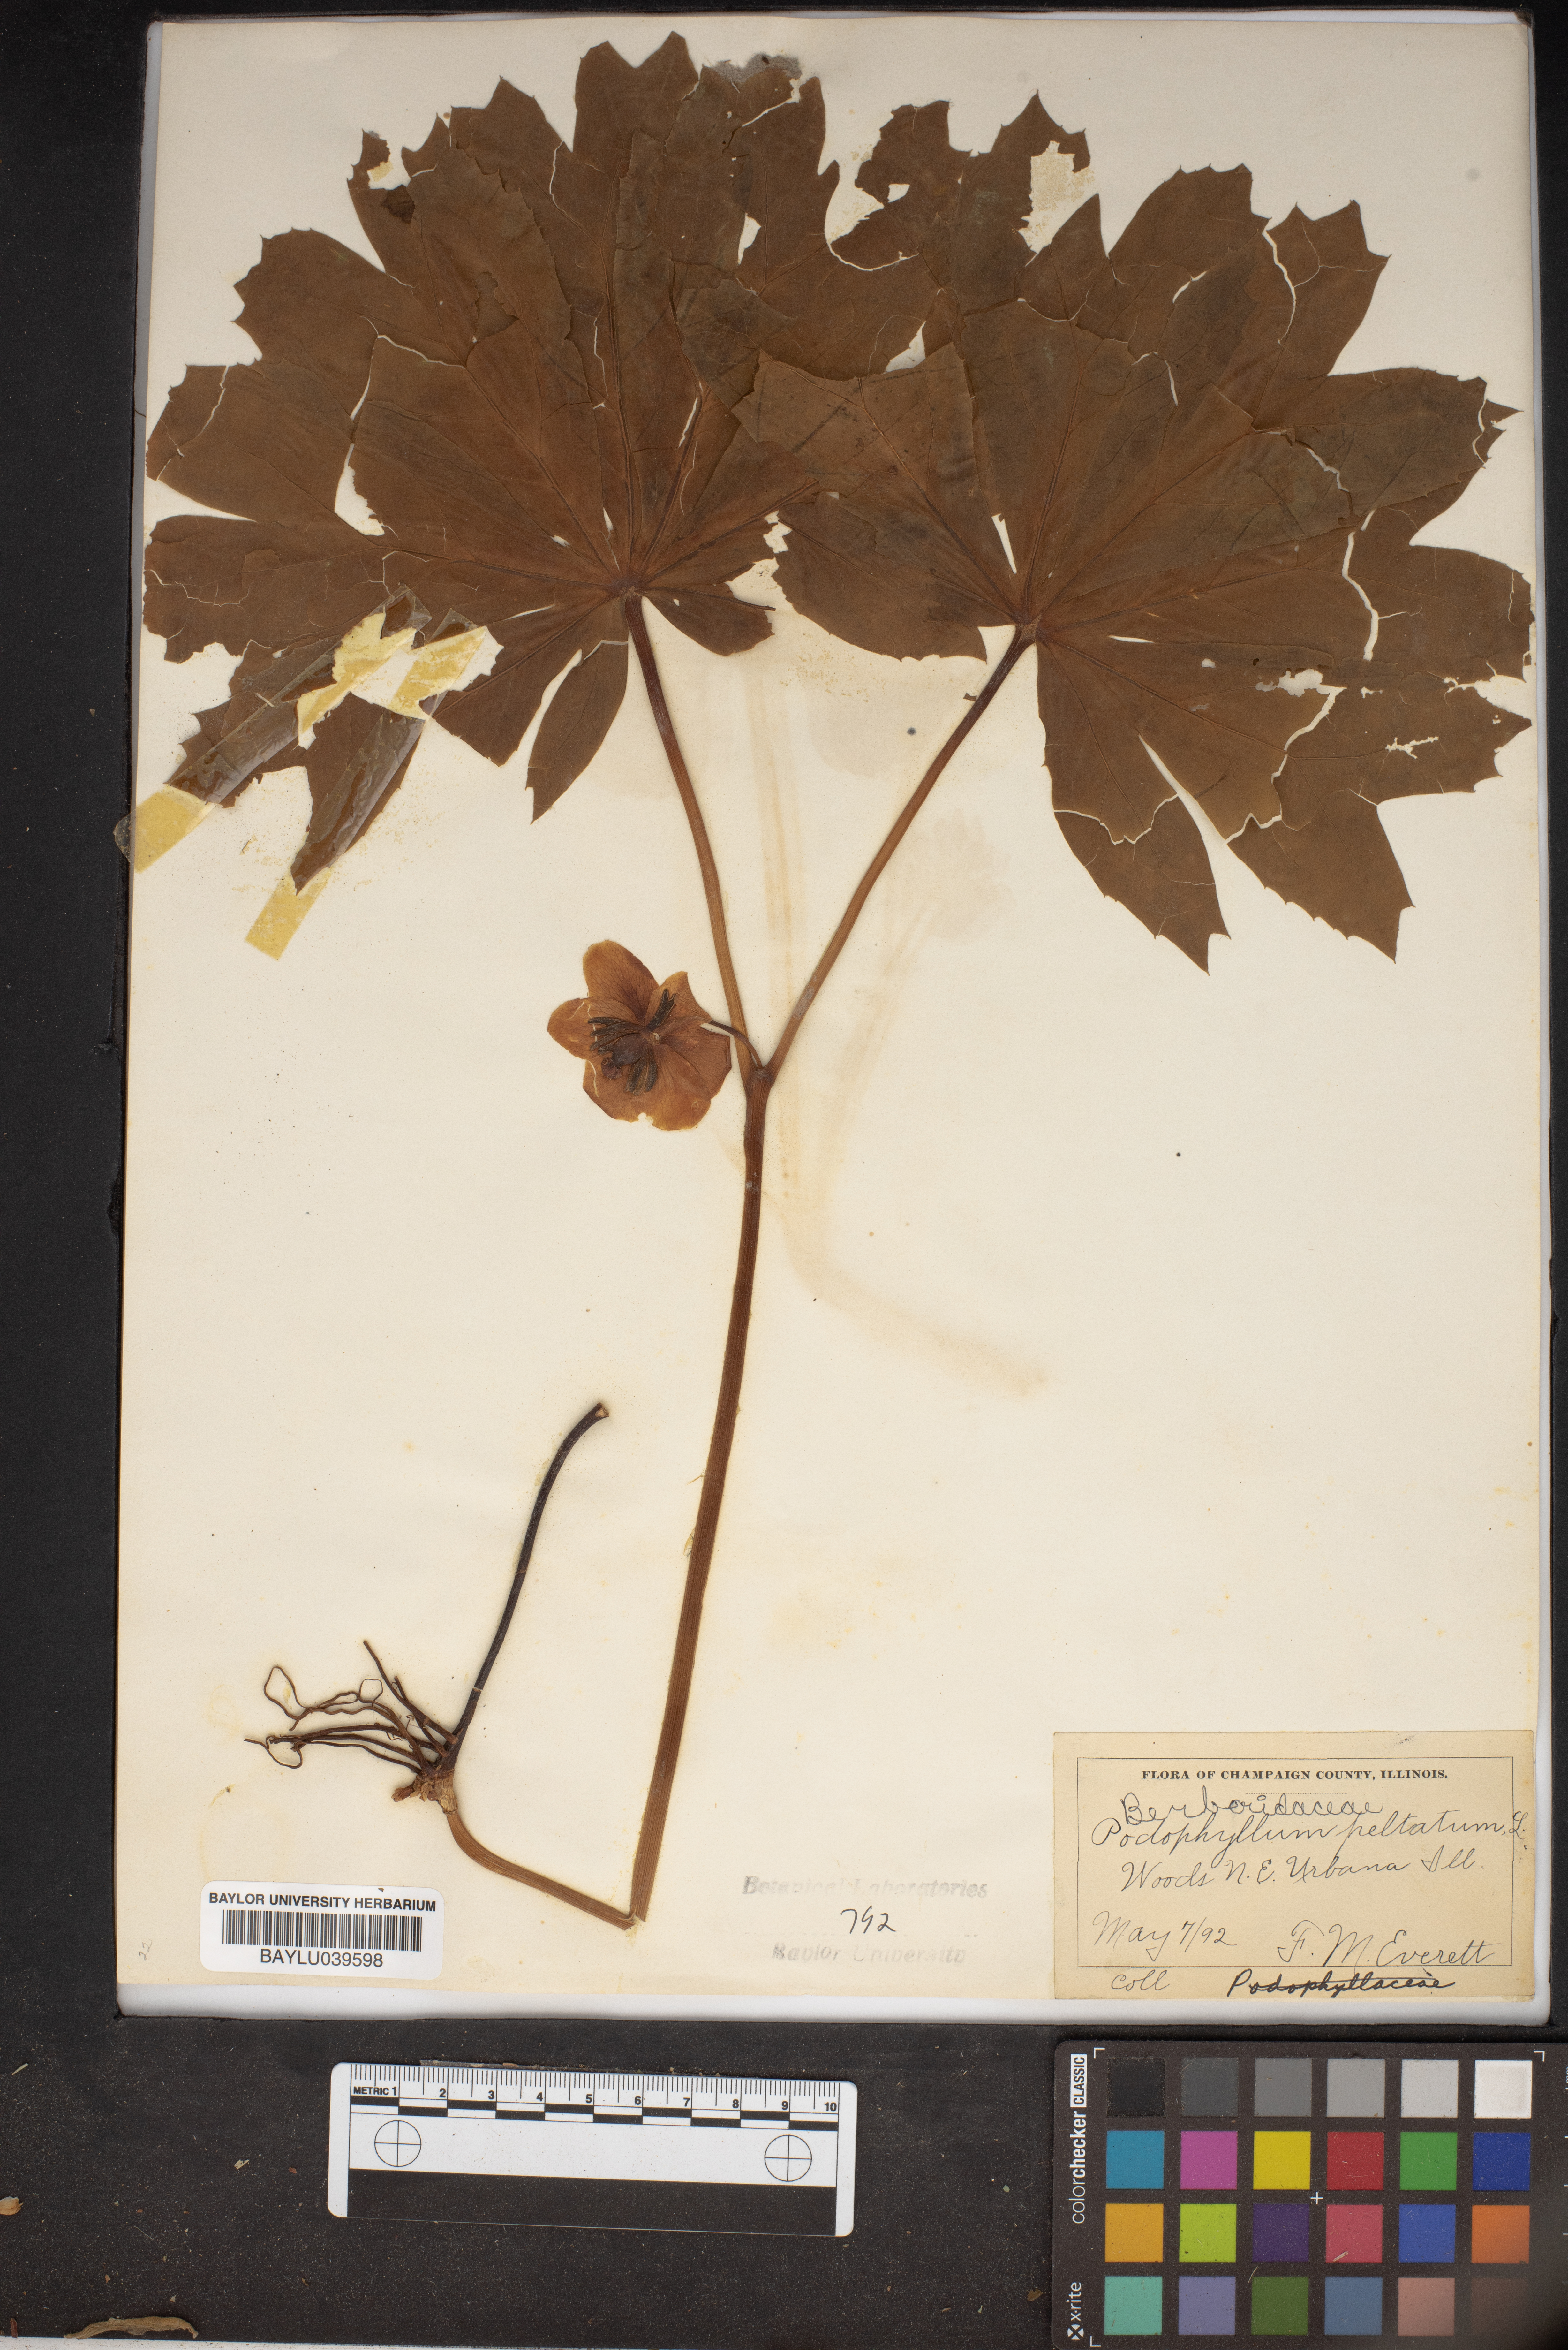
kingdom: Plantae
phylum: Tracheophyta
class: Magnoliopsida
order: Ranunculales
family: Berberidaceae
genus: Podophyllum
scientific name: Podophyllum
